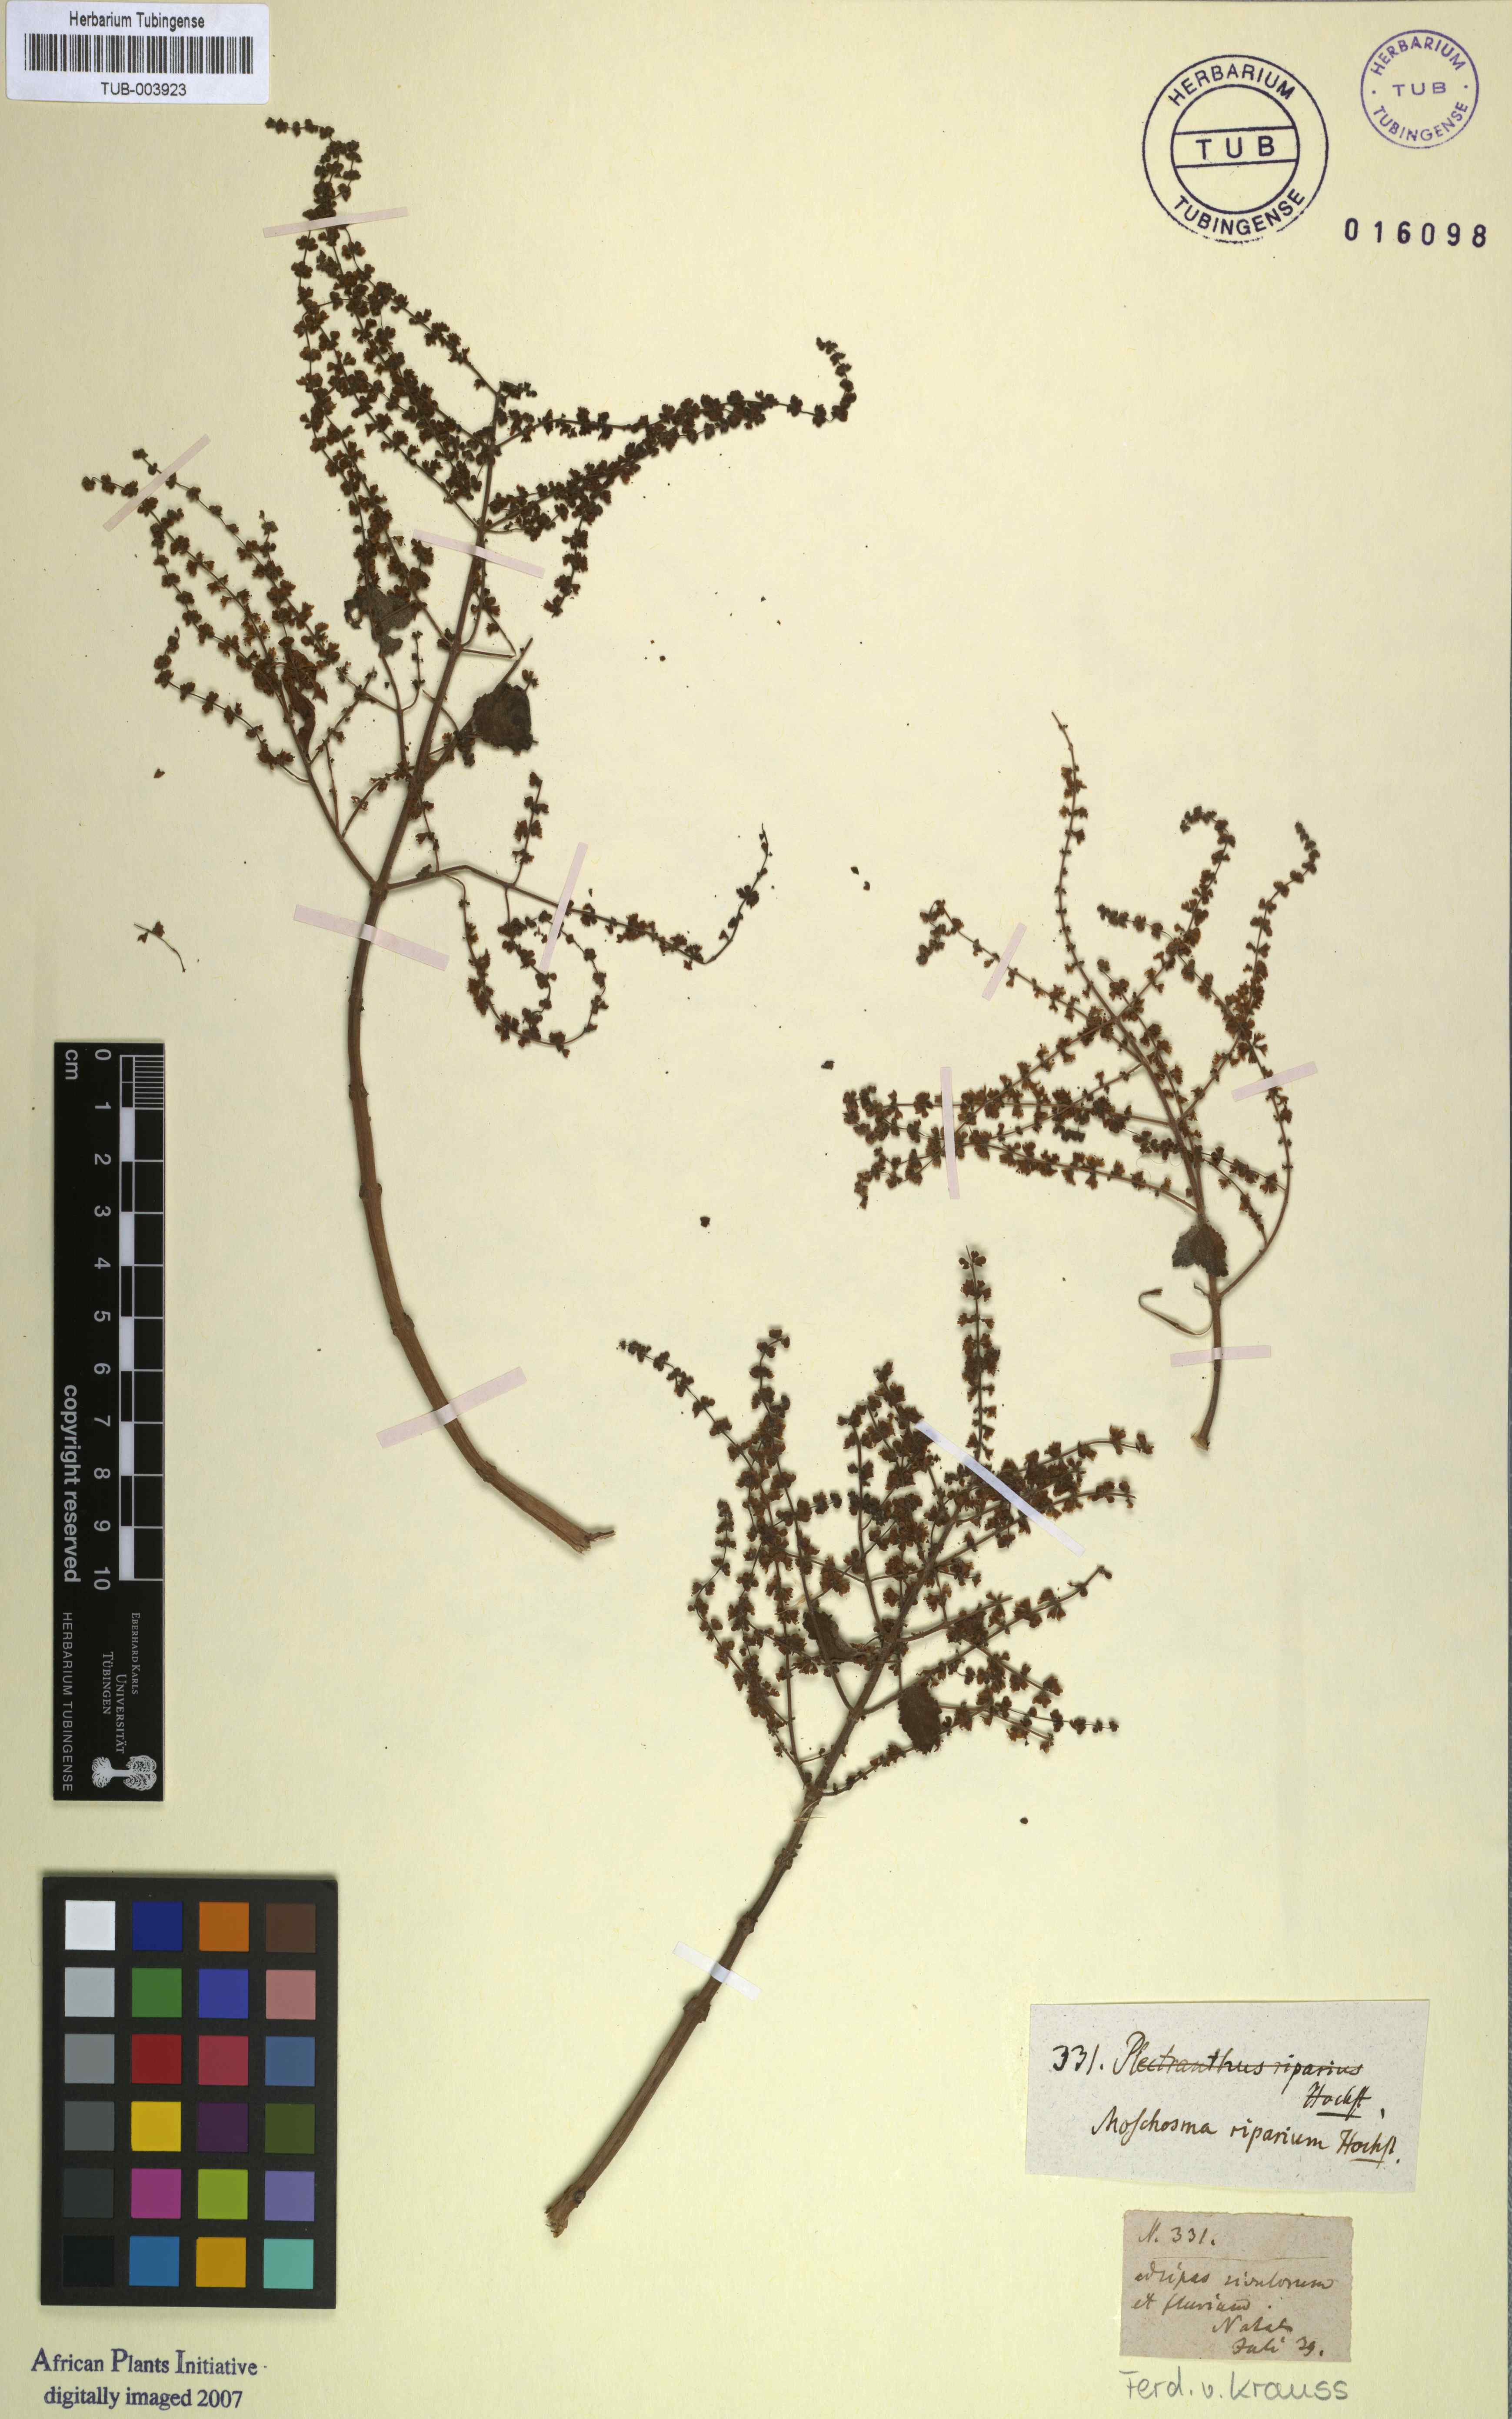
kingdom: Plantae
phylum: Tracheophyta
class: Magnoliopsida
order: Lamiales
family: Lamiaceae
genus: Tetradenia
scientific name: Tetradenia riparia
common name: Gingerbush
